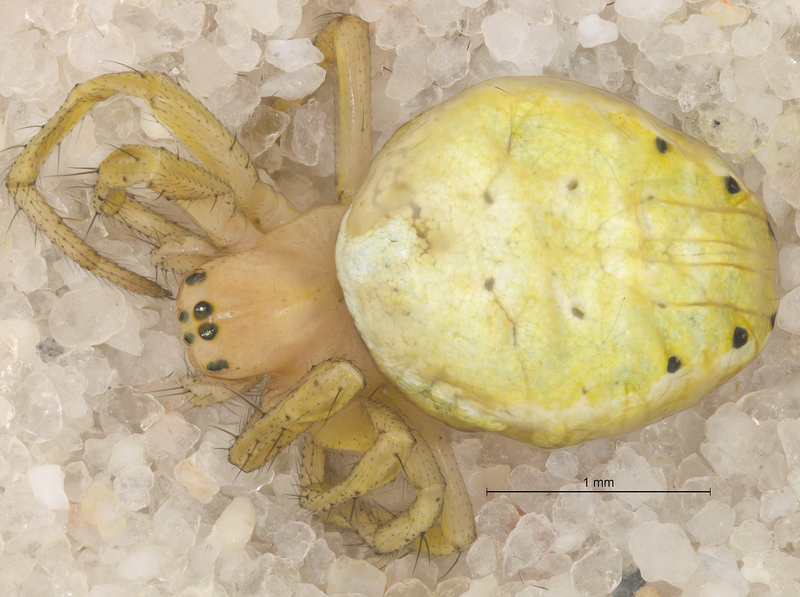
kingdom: Animalia
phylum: Arthropoda
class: Arachnida
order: Araneae
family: Araneidae
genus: Araniella
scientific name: Araniella cucurbitina
